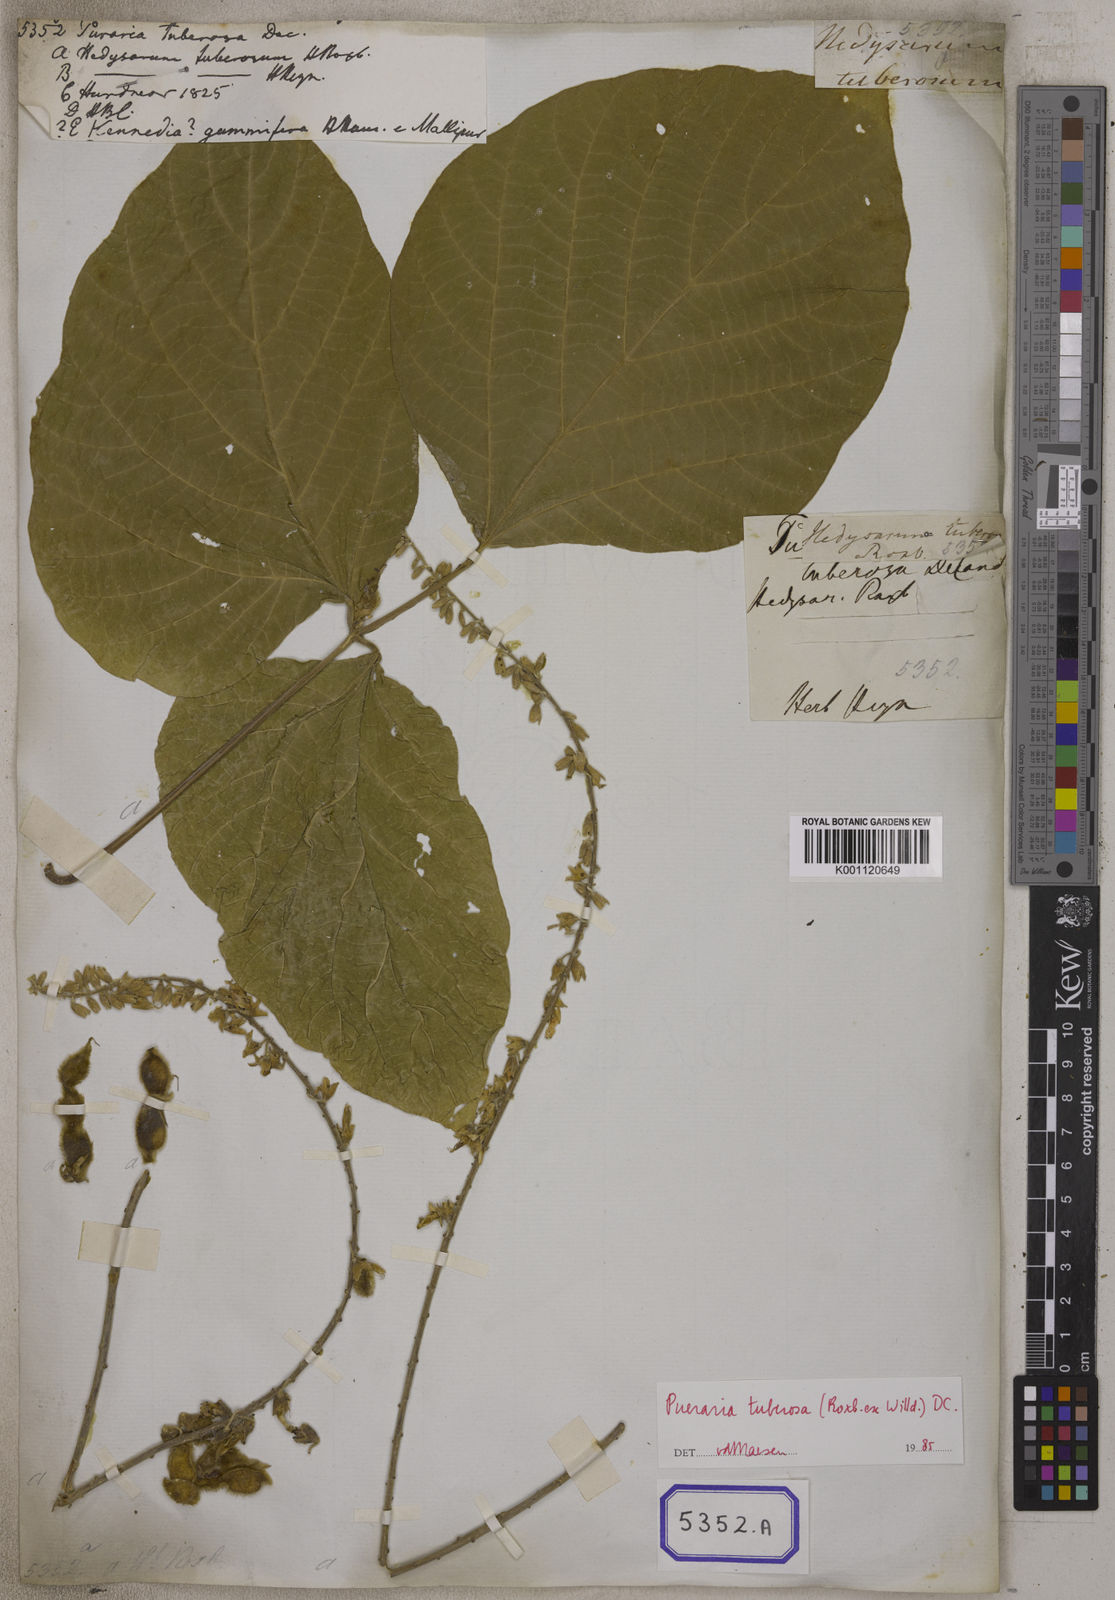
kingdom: Plantae
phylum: Tracheophyta
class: Magnoliopsida
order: Fabales
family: Fabaceae
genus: Pueraria
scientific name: Pueraria tuberosa
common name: Nepalese kudzu
